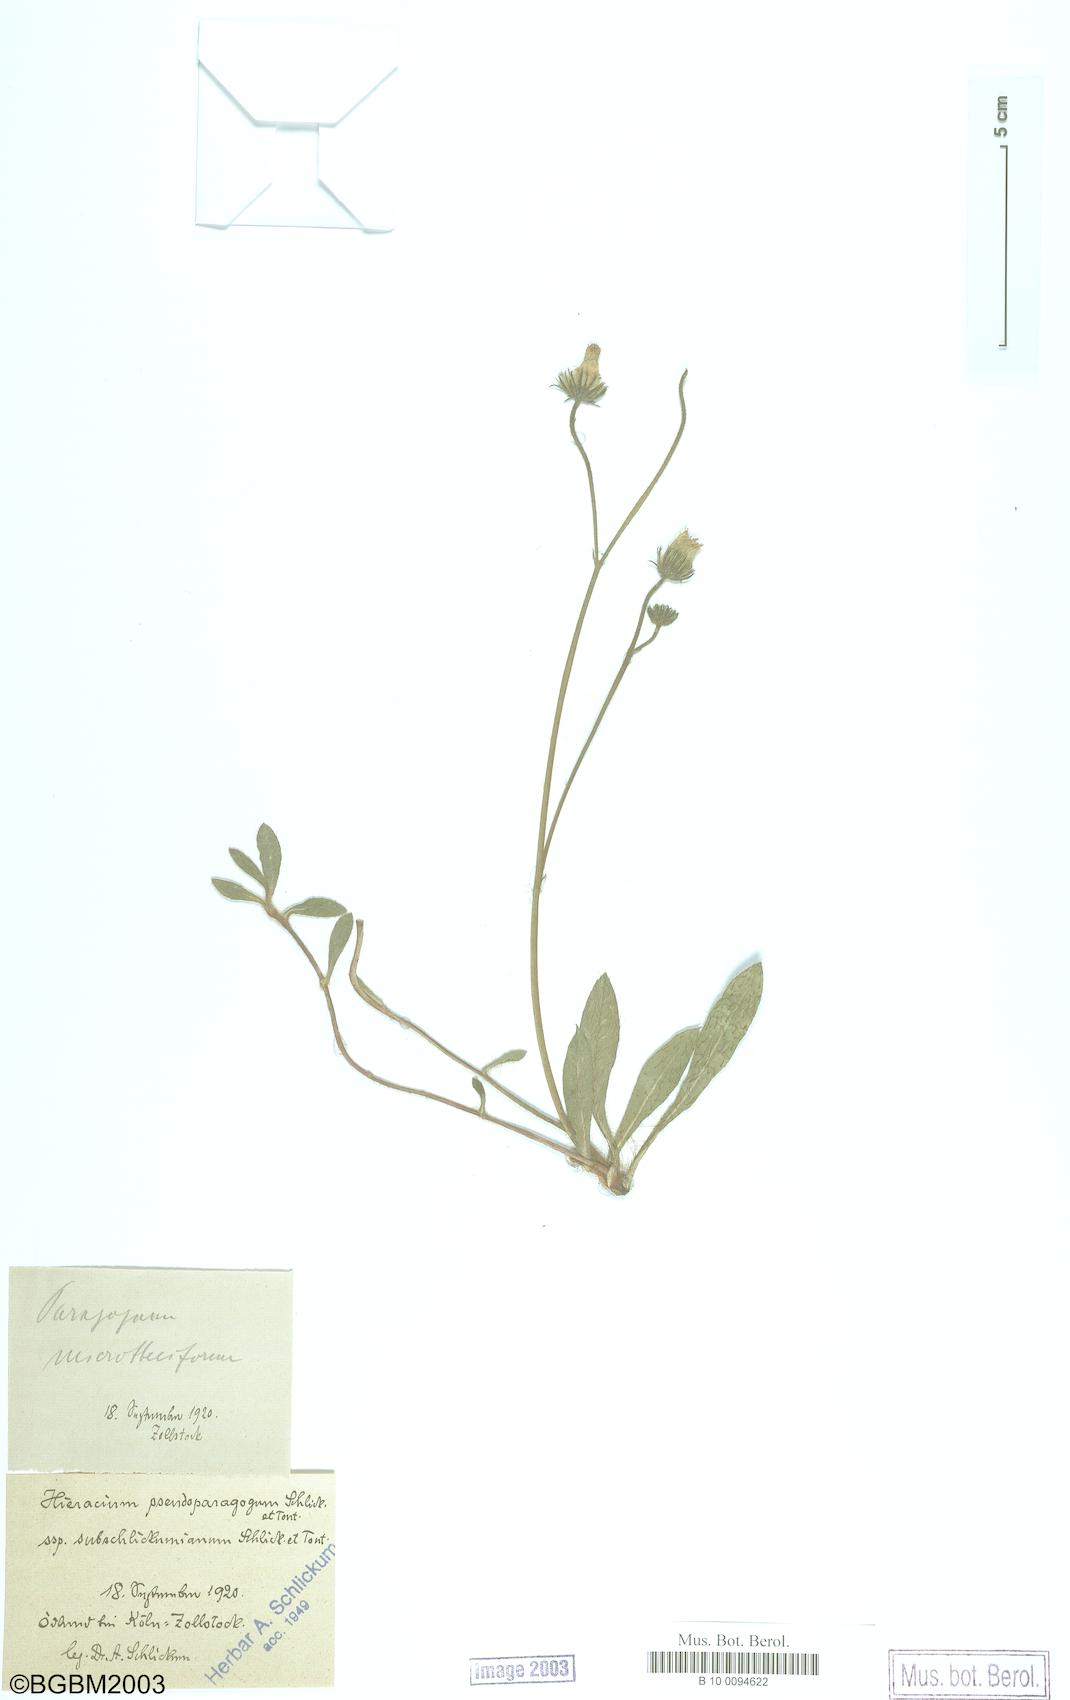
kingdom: Plantae
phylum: Tracheophyta
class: Magnoliopsida
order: Asterales
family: Asteraceae
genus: Pilosella
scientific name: Pilosella pseudoparagoga
